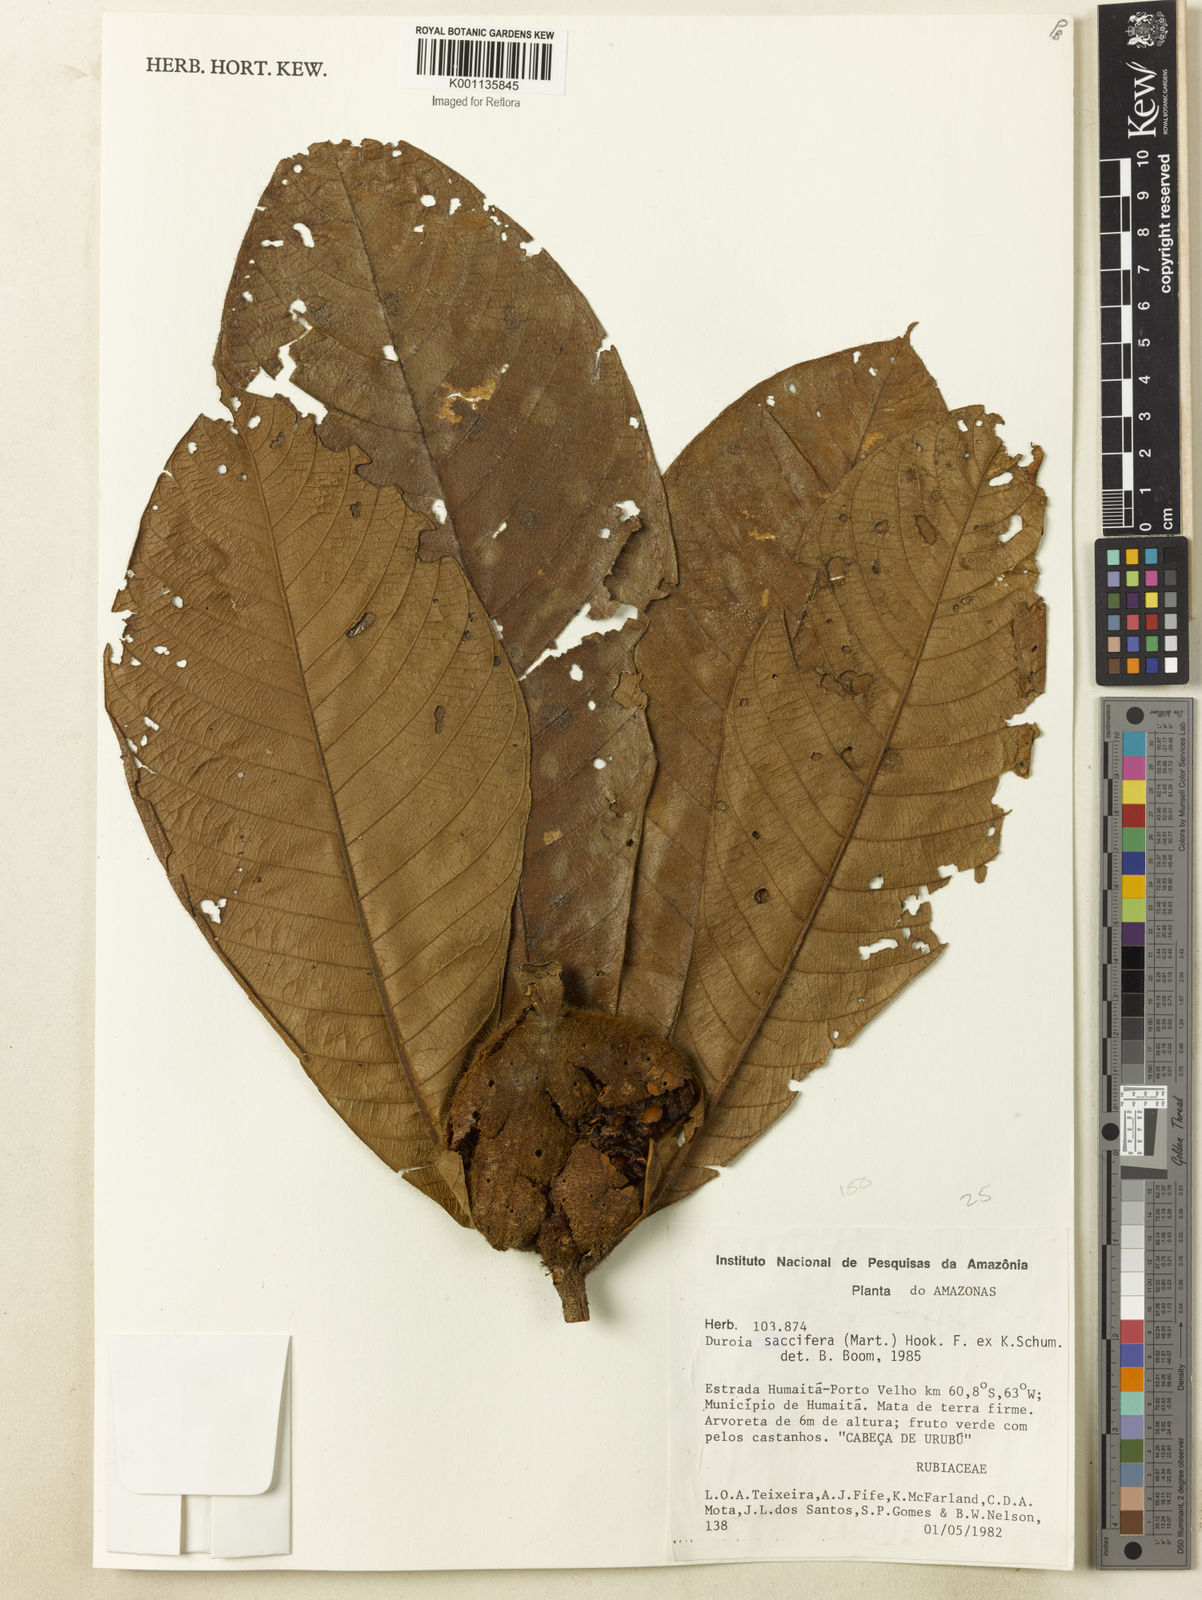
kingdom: Plantae
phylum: Tracheophyta
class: Magnoliopsida
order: Gentianales
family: Rubiaceae
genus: Duroia
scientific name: Duroia saccifera
